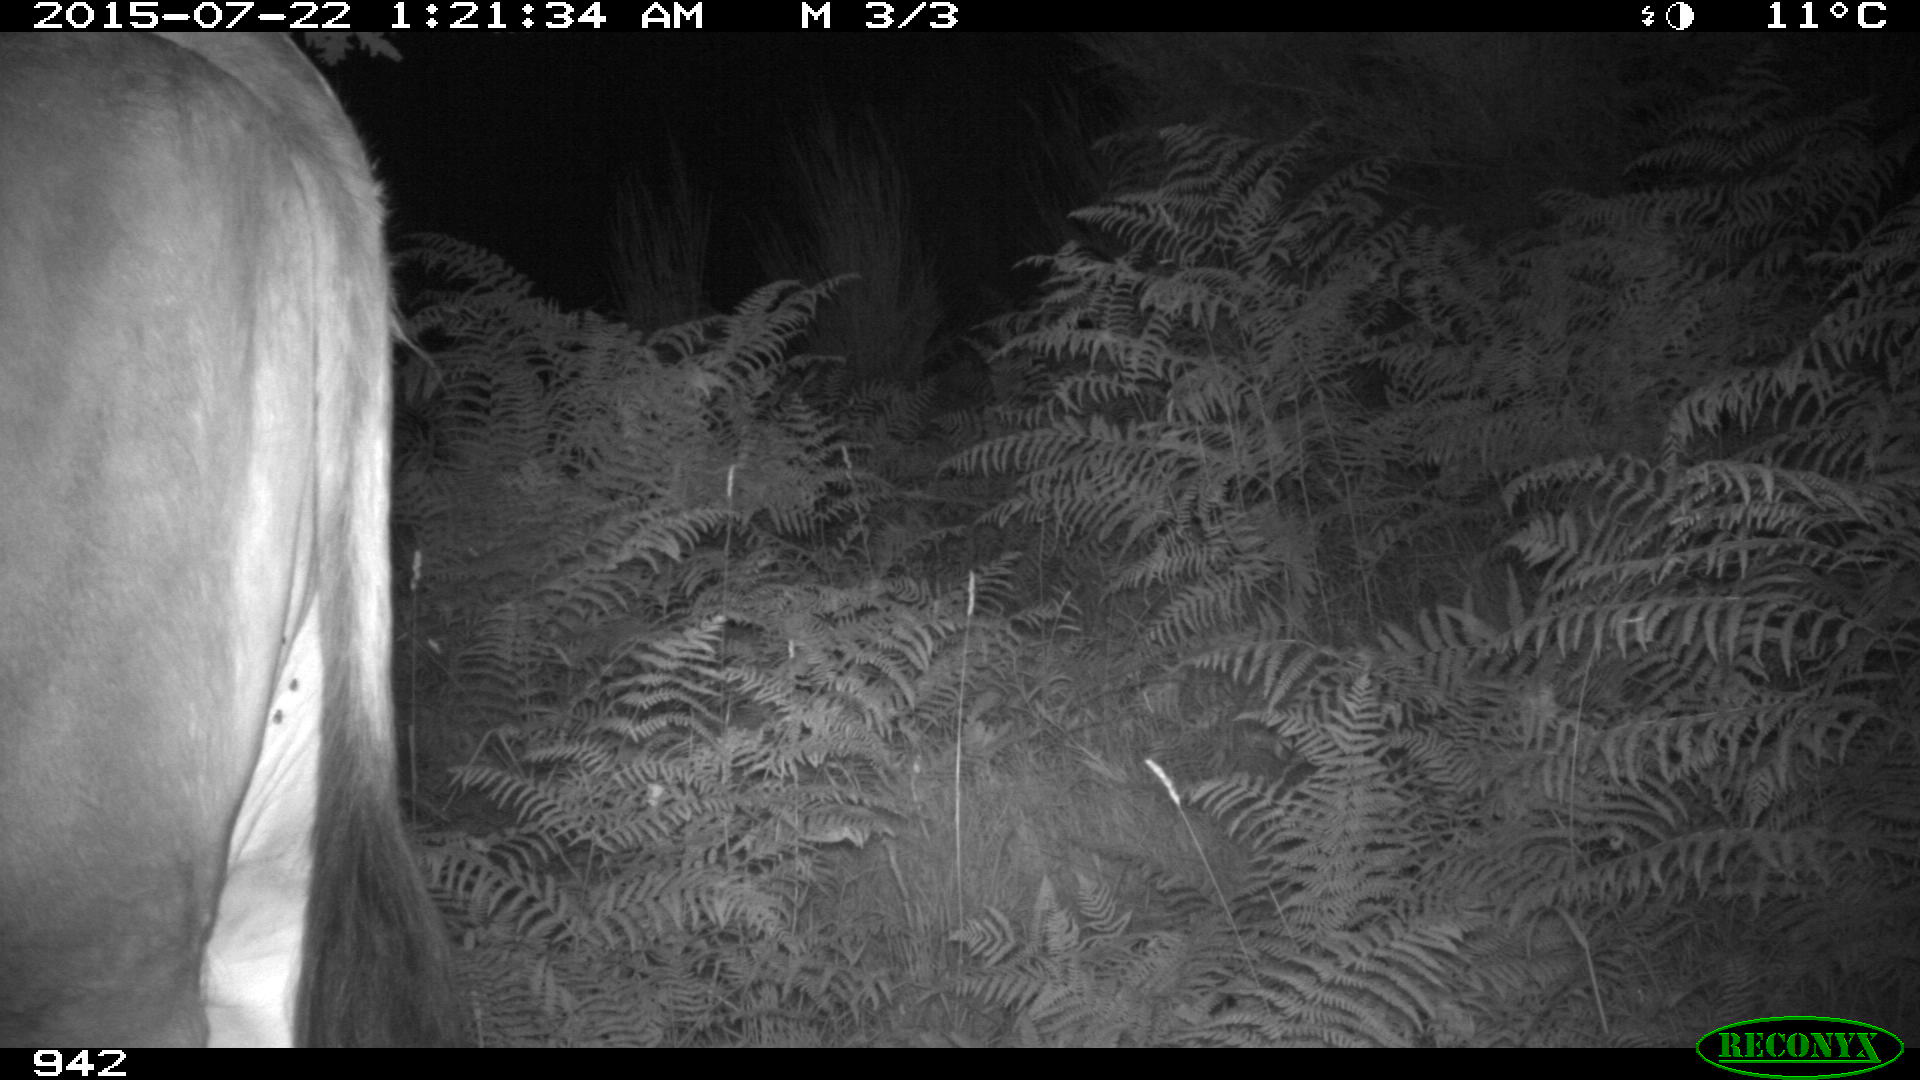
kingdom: Animalia
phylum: Chordata
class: Mammalia
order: Artiodactyla
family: Bovidae
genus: Bos
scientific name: Bos taurus
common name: Domesticated cattle
